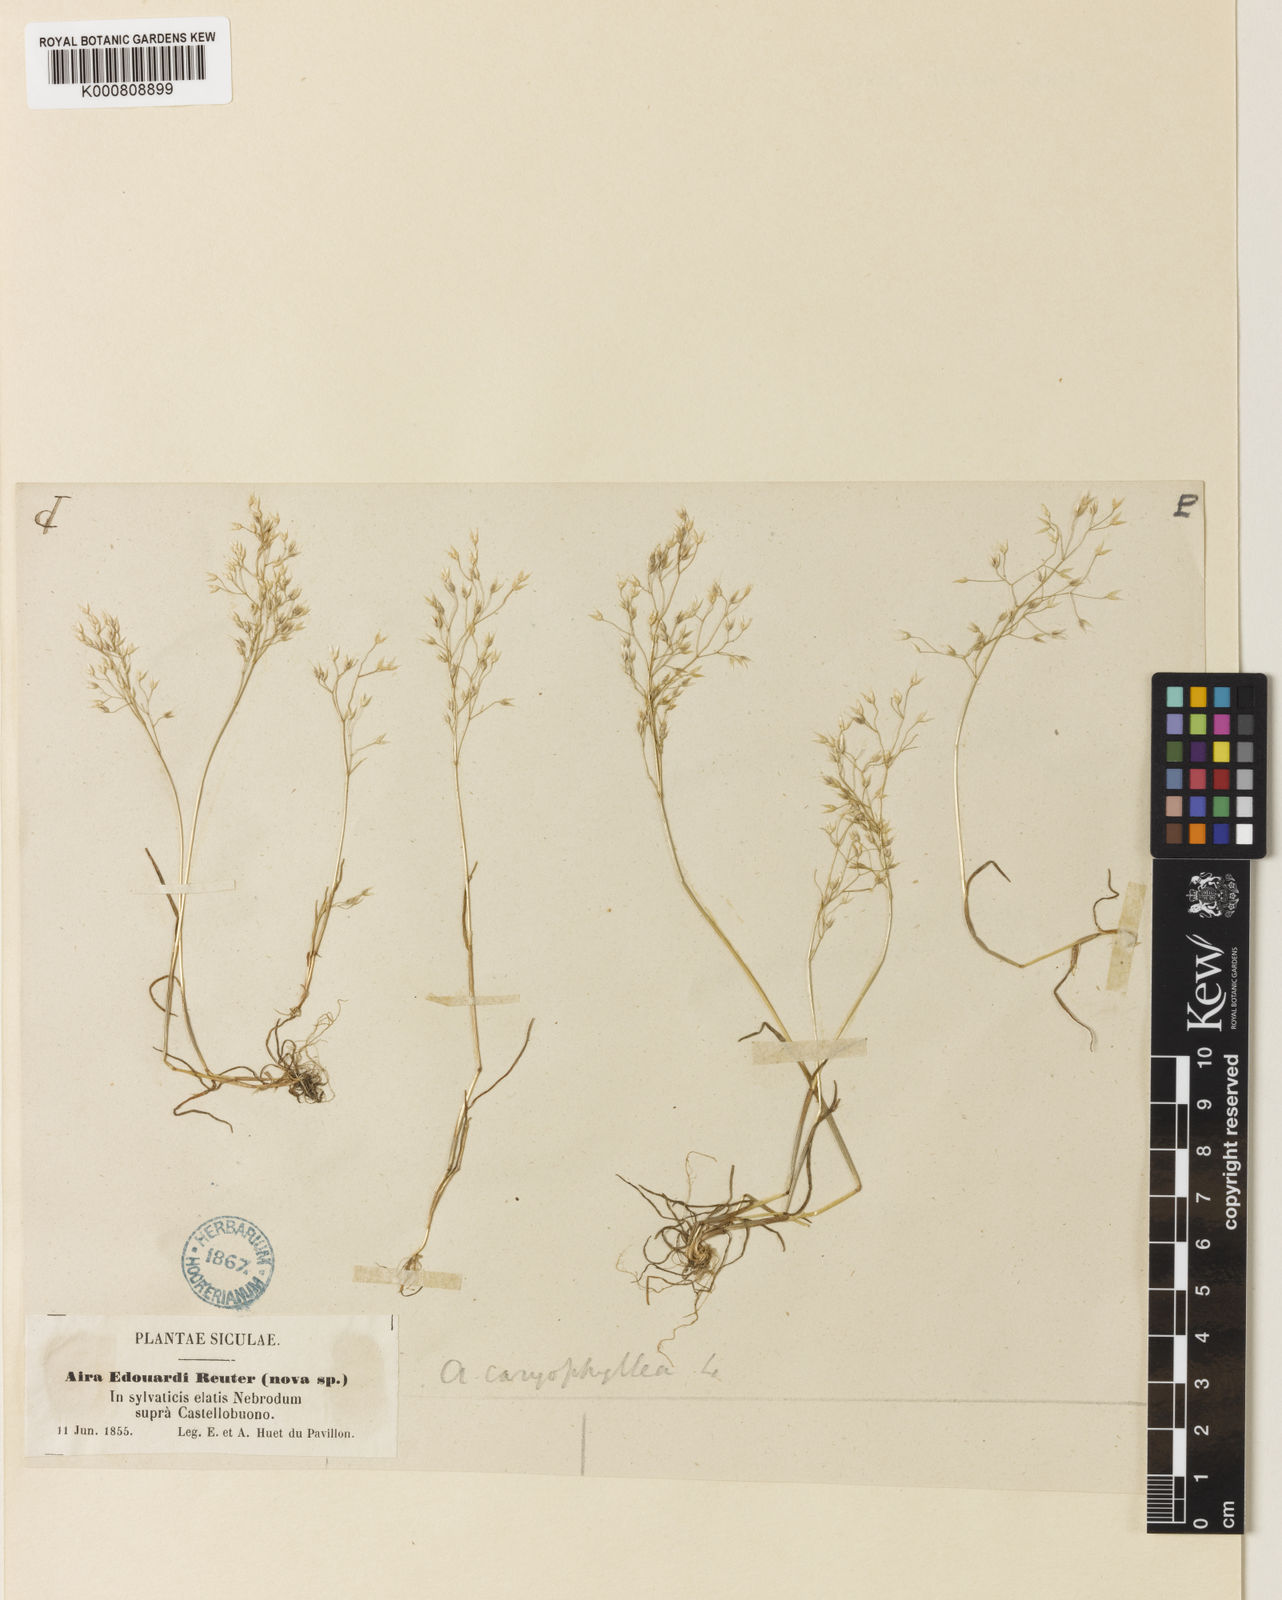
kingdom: Plantae
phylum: Tracheophyta
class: Liliopsida
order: Poales
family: Poaceae
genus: Aira
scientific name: Aira caryophyllea
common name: Silver hairgrass
